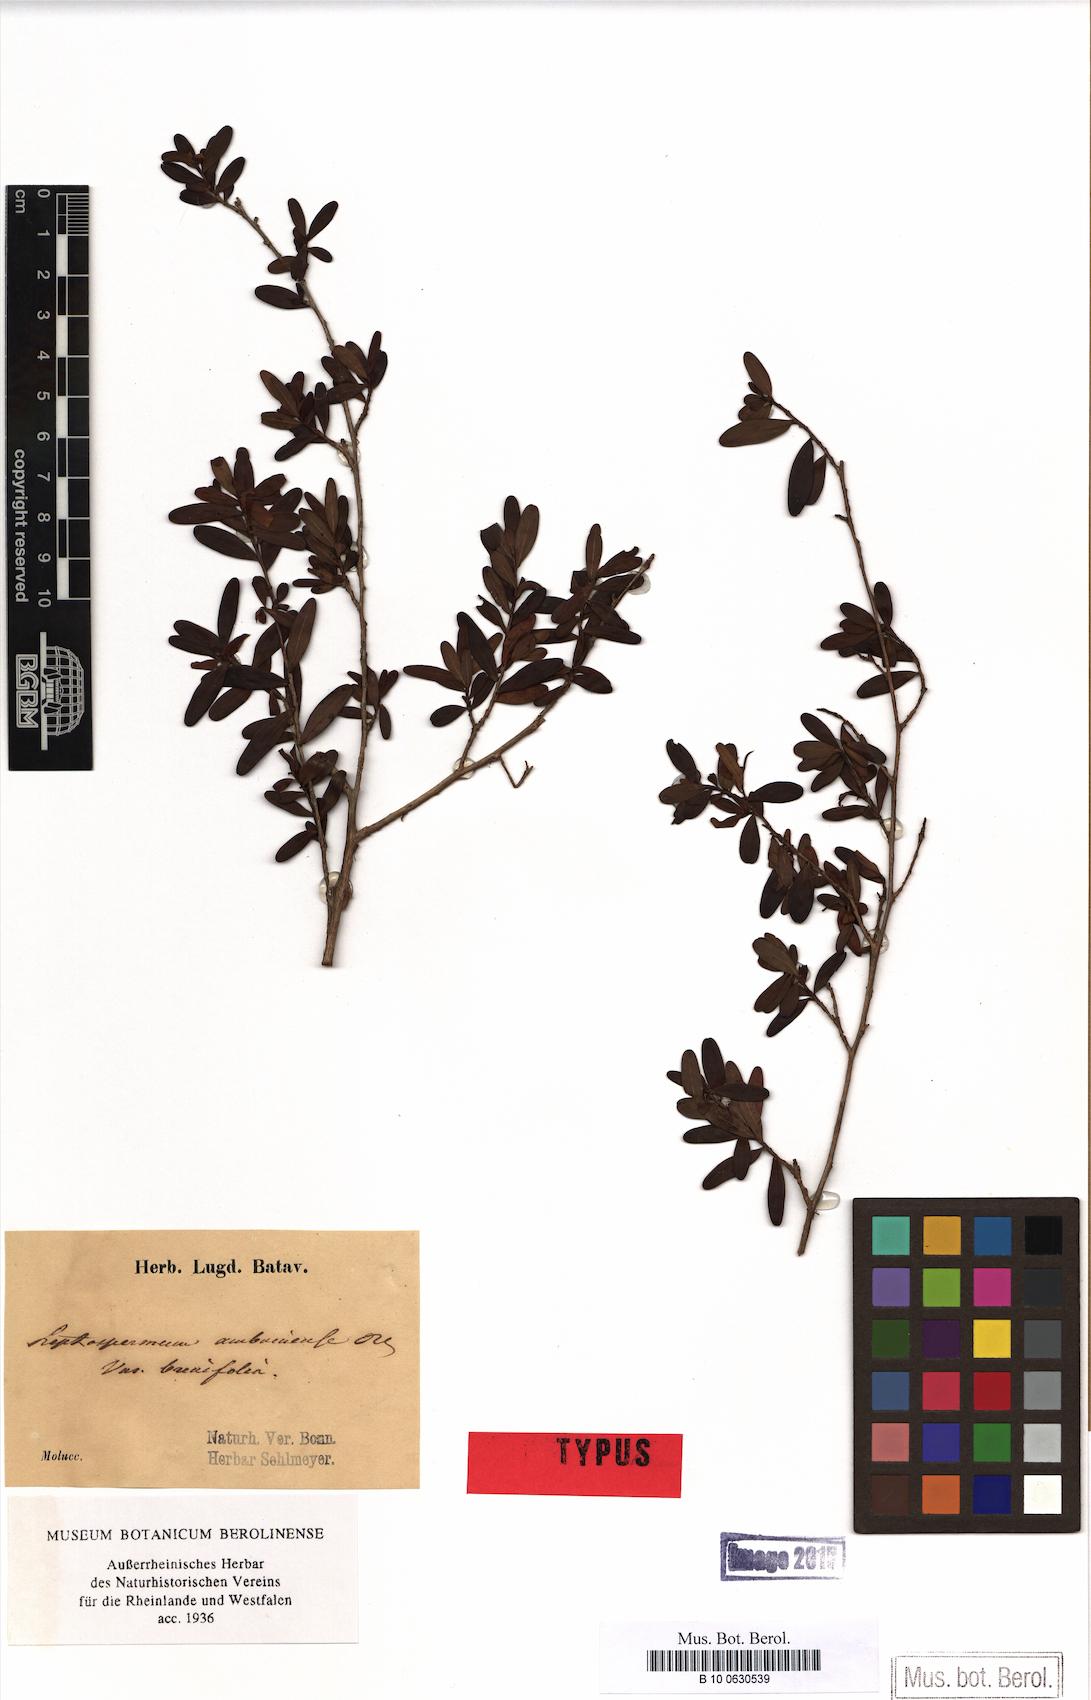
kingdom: Plantae
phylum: Tracheophyta
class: Magnoliopsida
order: Myrtales
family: Myrtaceae
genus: Leptospermum
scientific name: Leptospermum javanicum
